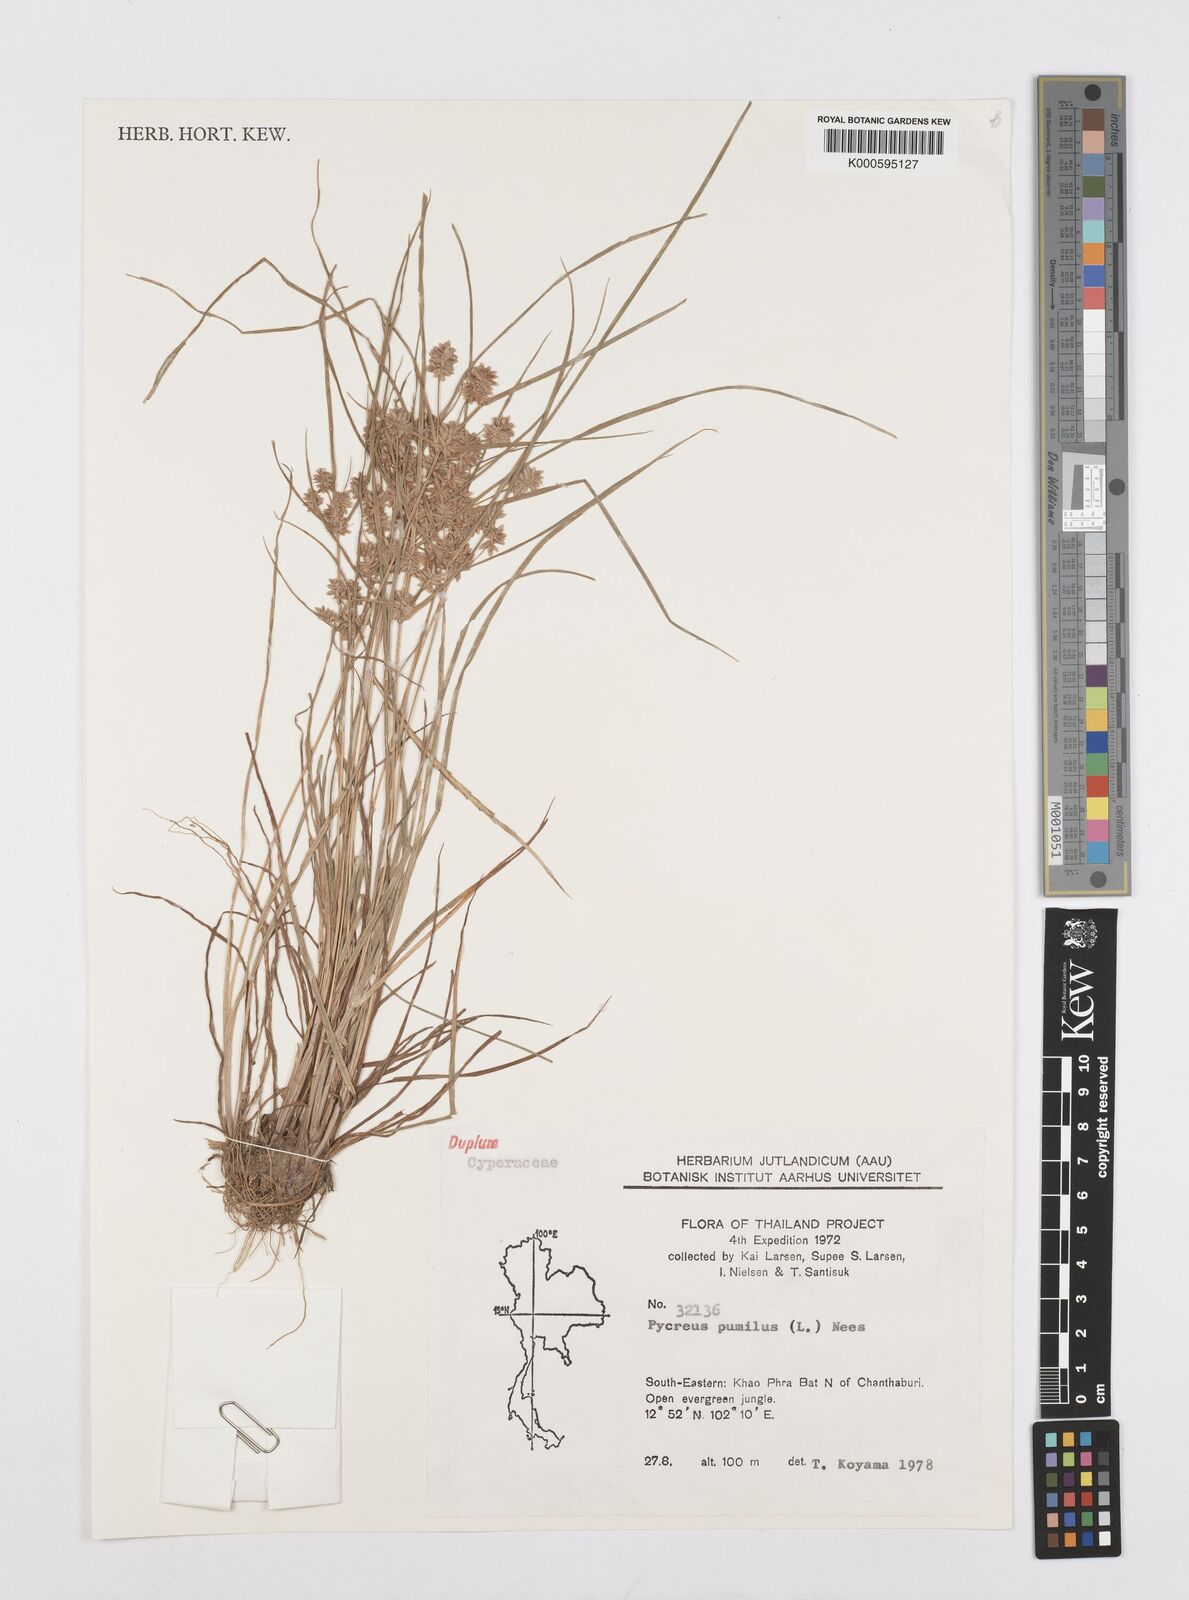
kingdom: Plantae
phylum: Tracheophyta
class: Liliopsida
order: Poales
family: Cyperaceae
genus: Cyperus
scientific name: Cyperus pumilus
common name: Low flatsedge
